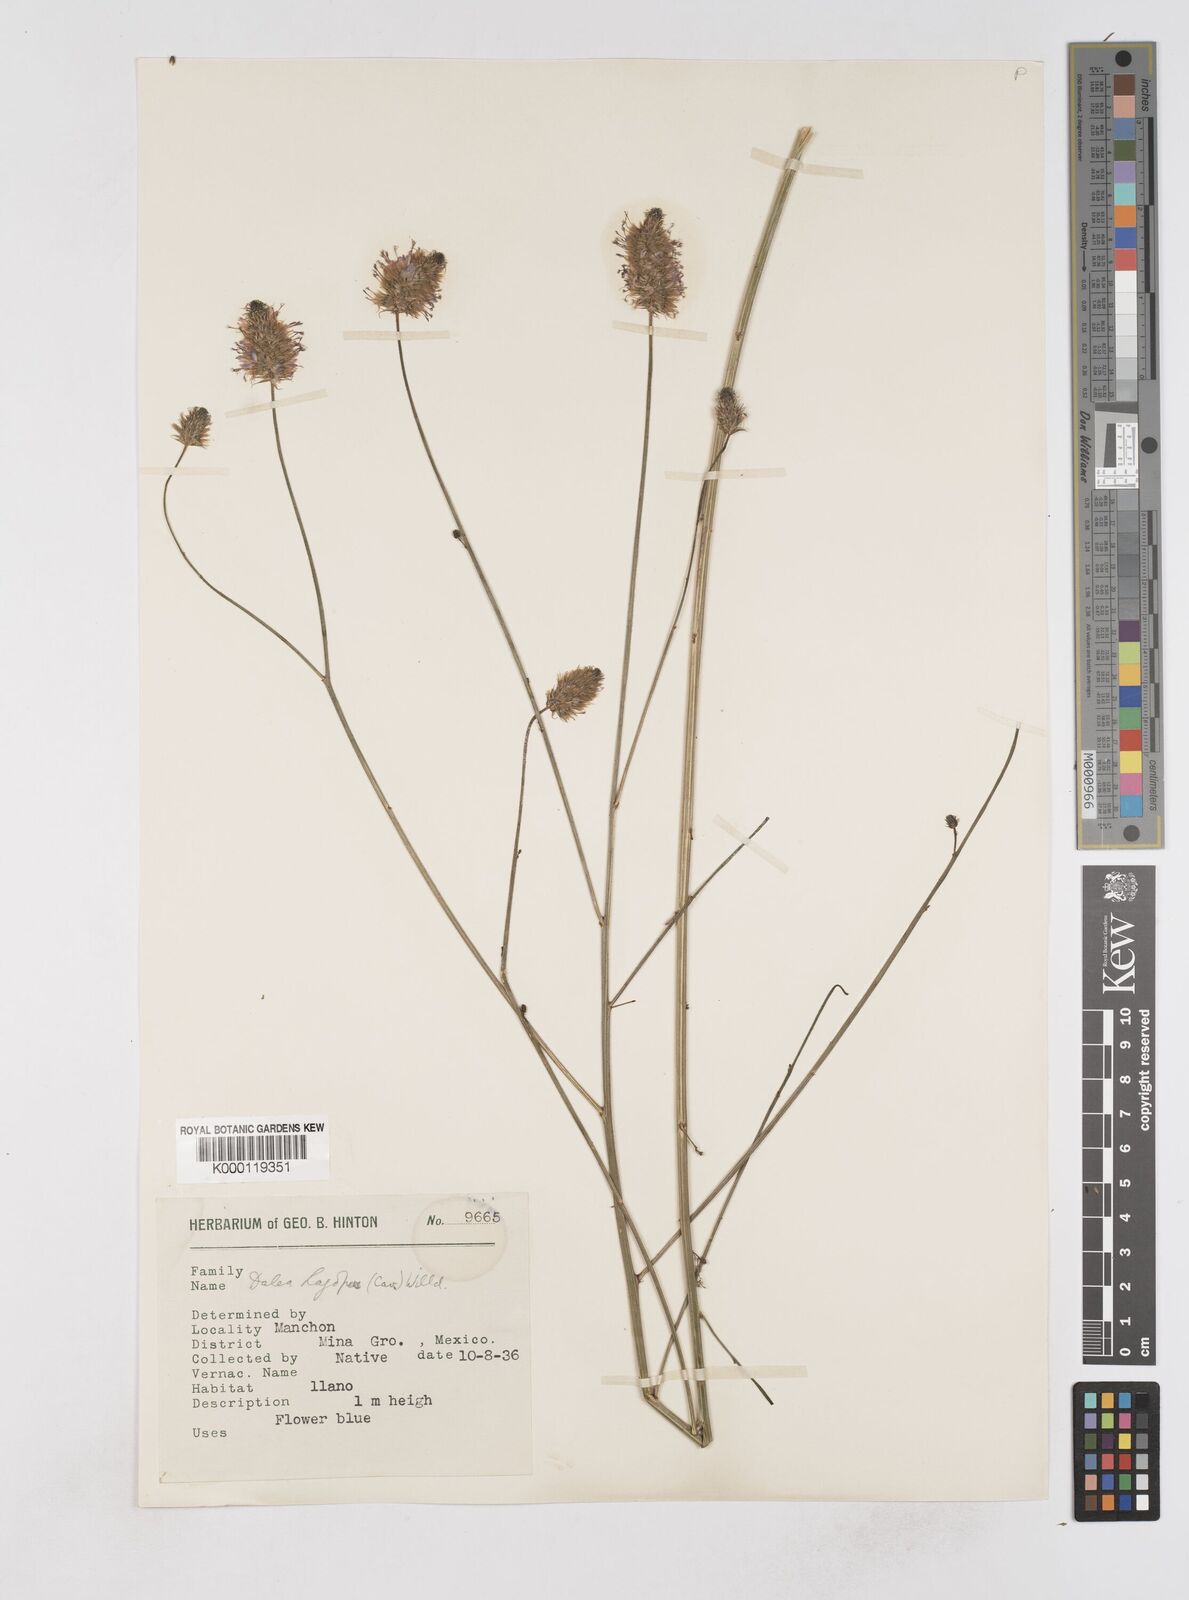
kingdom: Plantae
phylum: Tracheophyta
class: Magnoliopsida
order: Fabales
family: Fabaceae
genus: Dalea
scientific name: Dalea leporina
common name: Foxtail dalea
